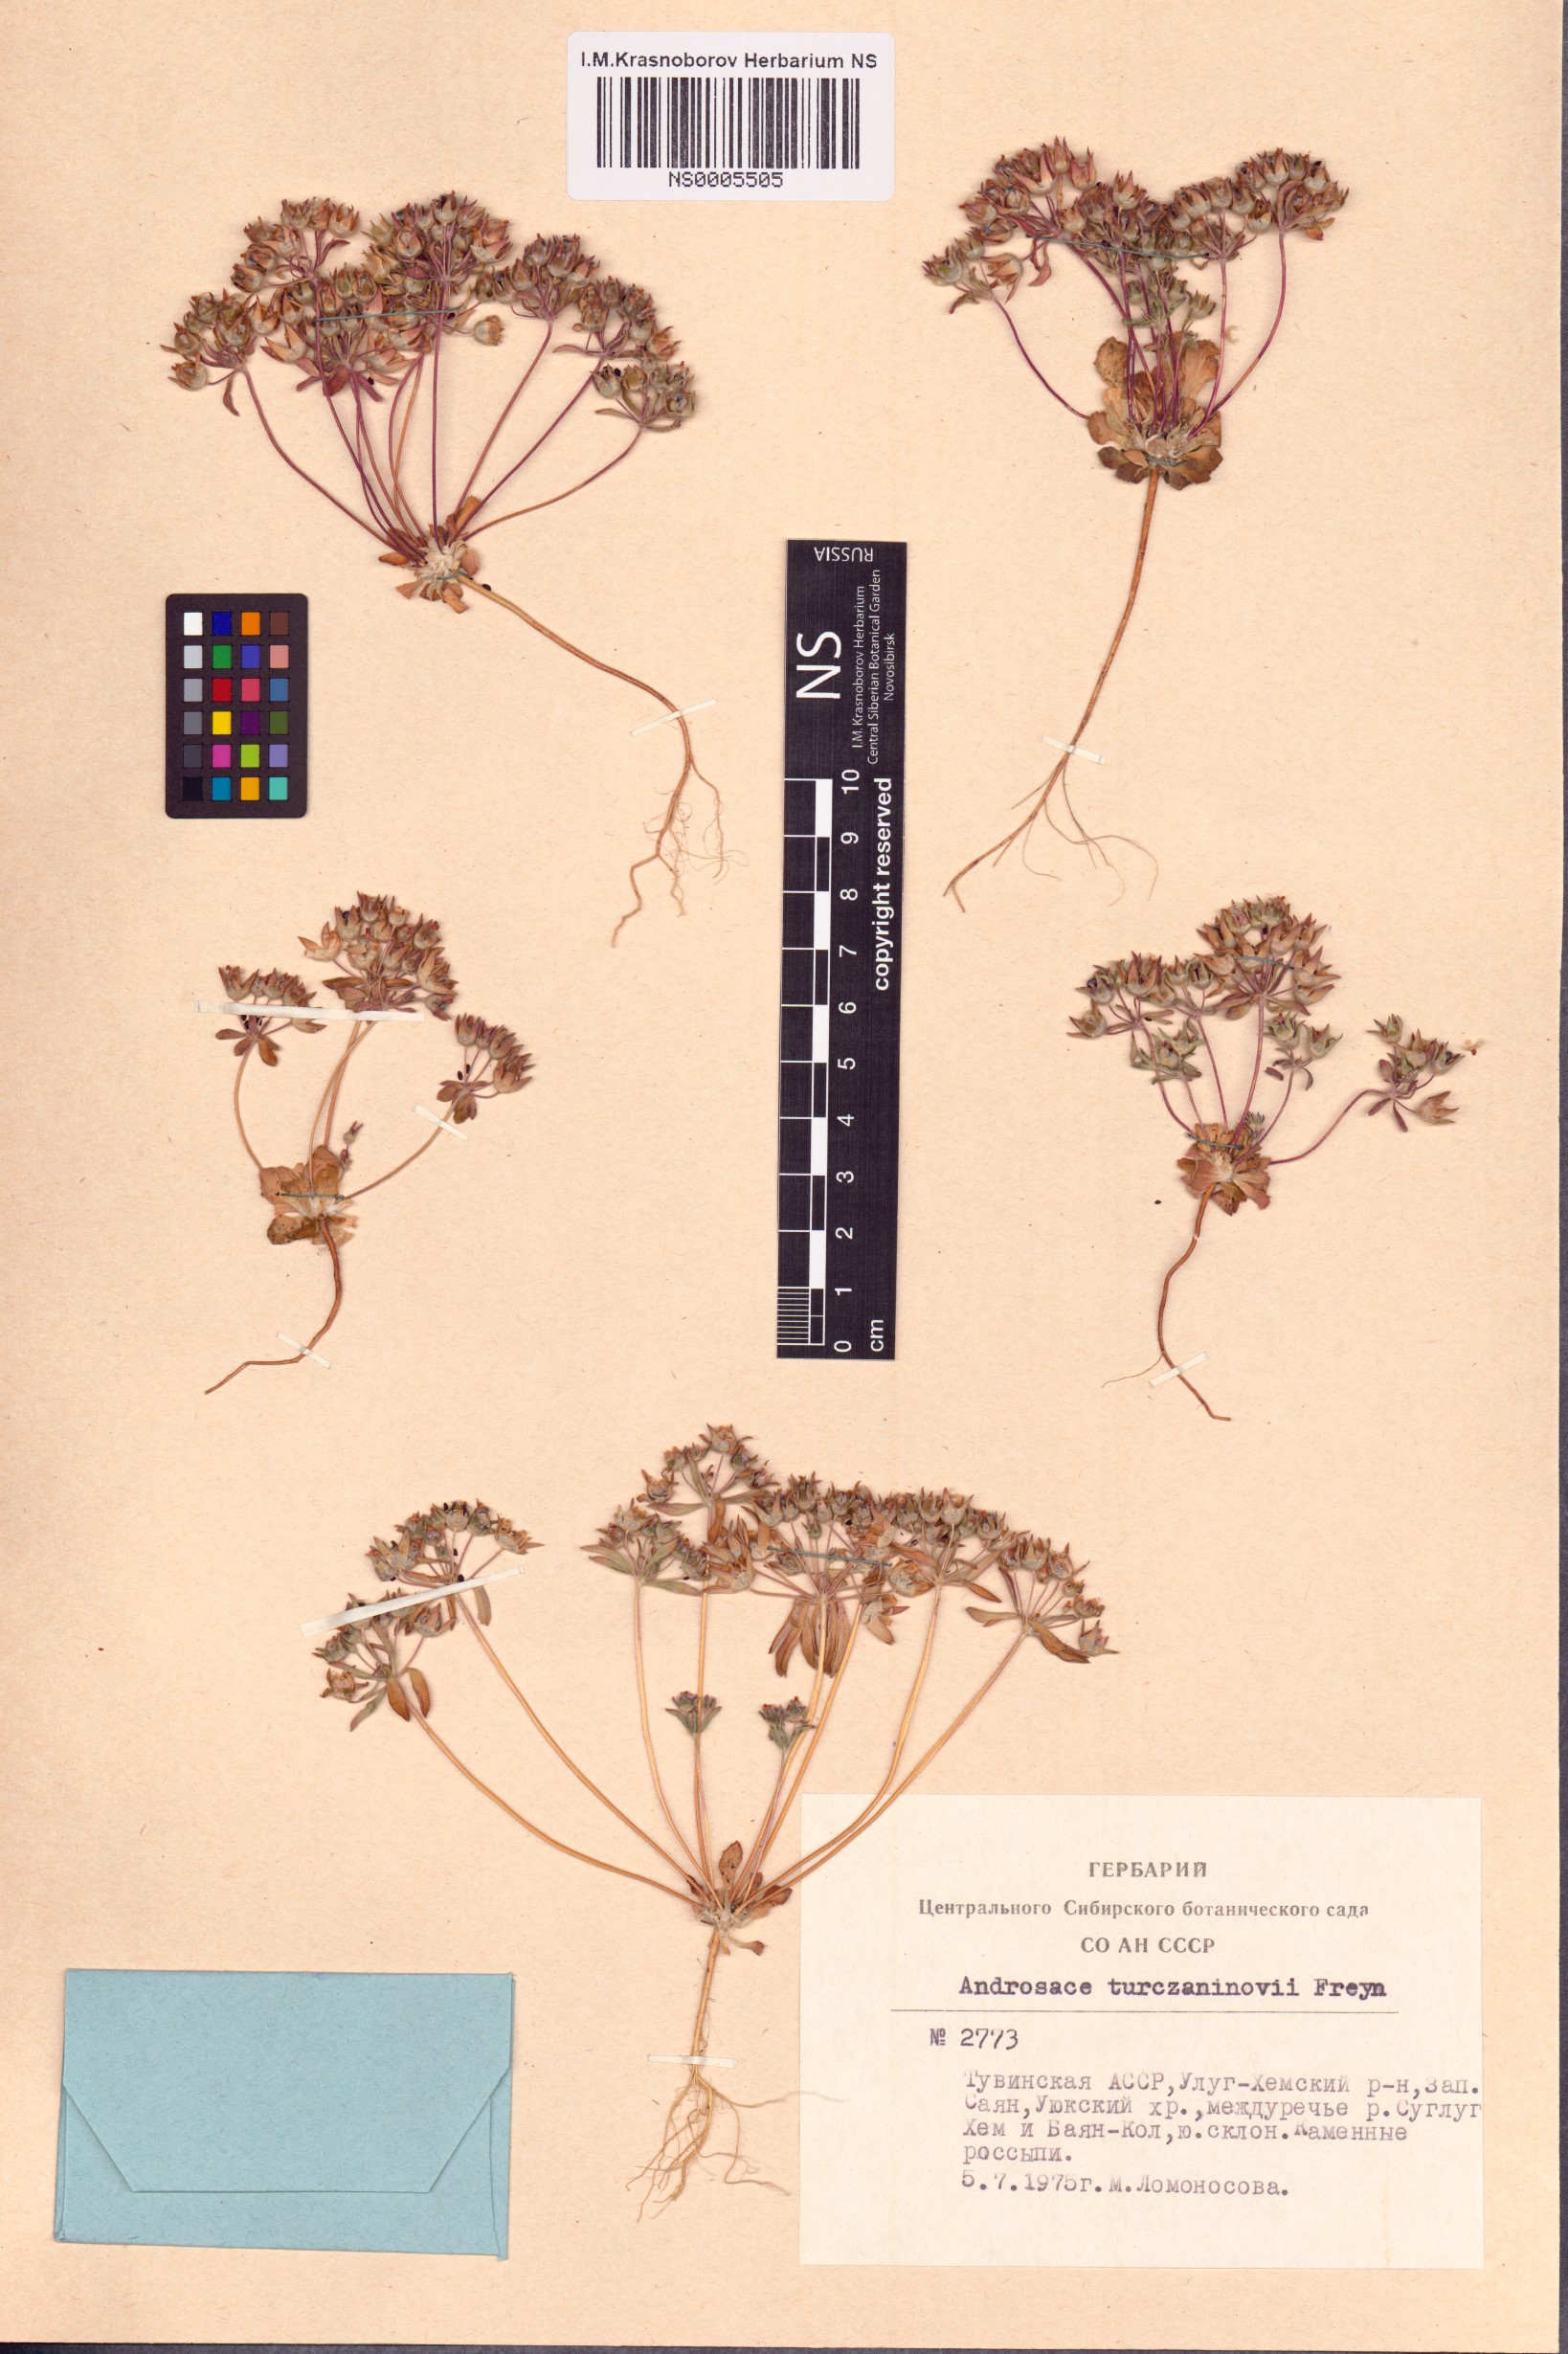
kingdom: Plantae
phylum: Tracheophyta
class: Magnoliopsida
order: Ericales
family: Primulaceae
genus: Androsace
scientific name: Androsace maxima
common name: Annual androsace
